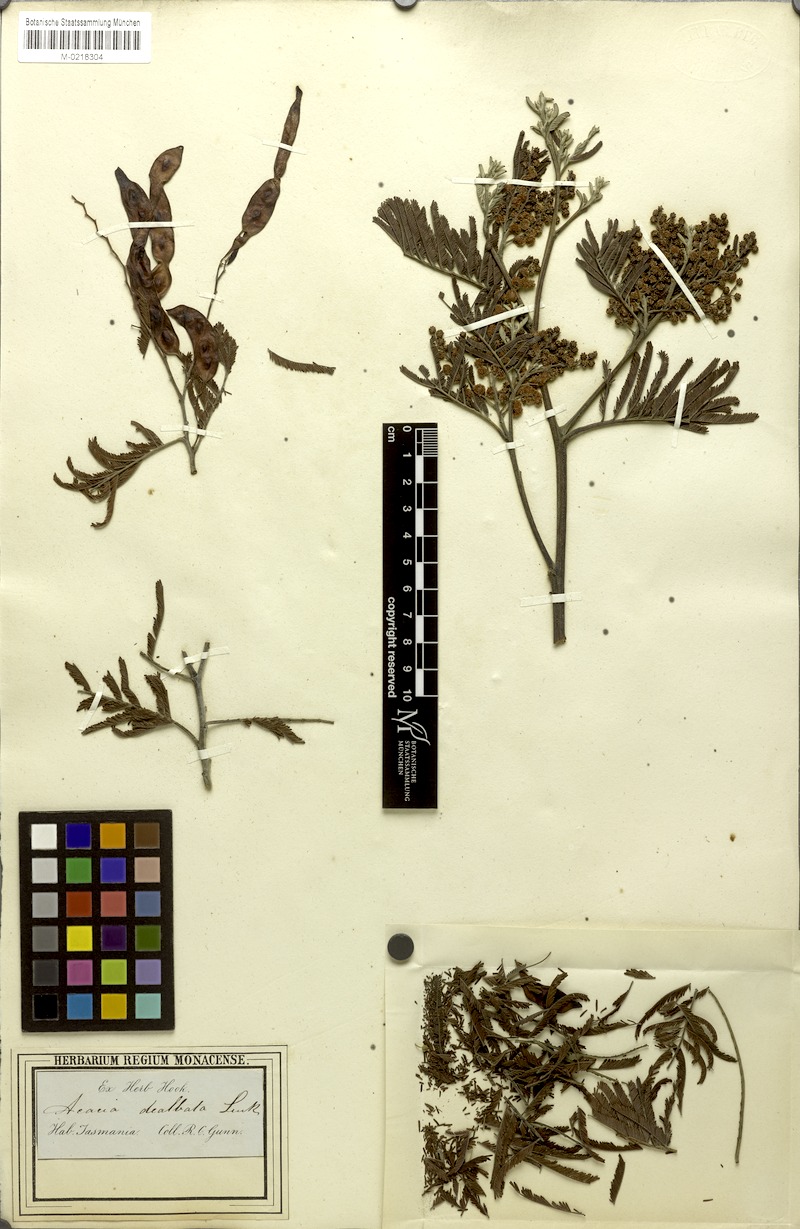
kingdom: Plantae
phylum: Tracheophyta
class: Magnoliopsida
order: Fabales
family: Fabaceae
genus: Acacia
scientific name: Acacia dealbata
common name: Silver wattle
